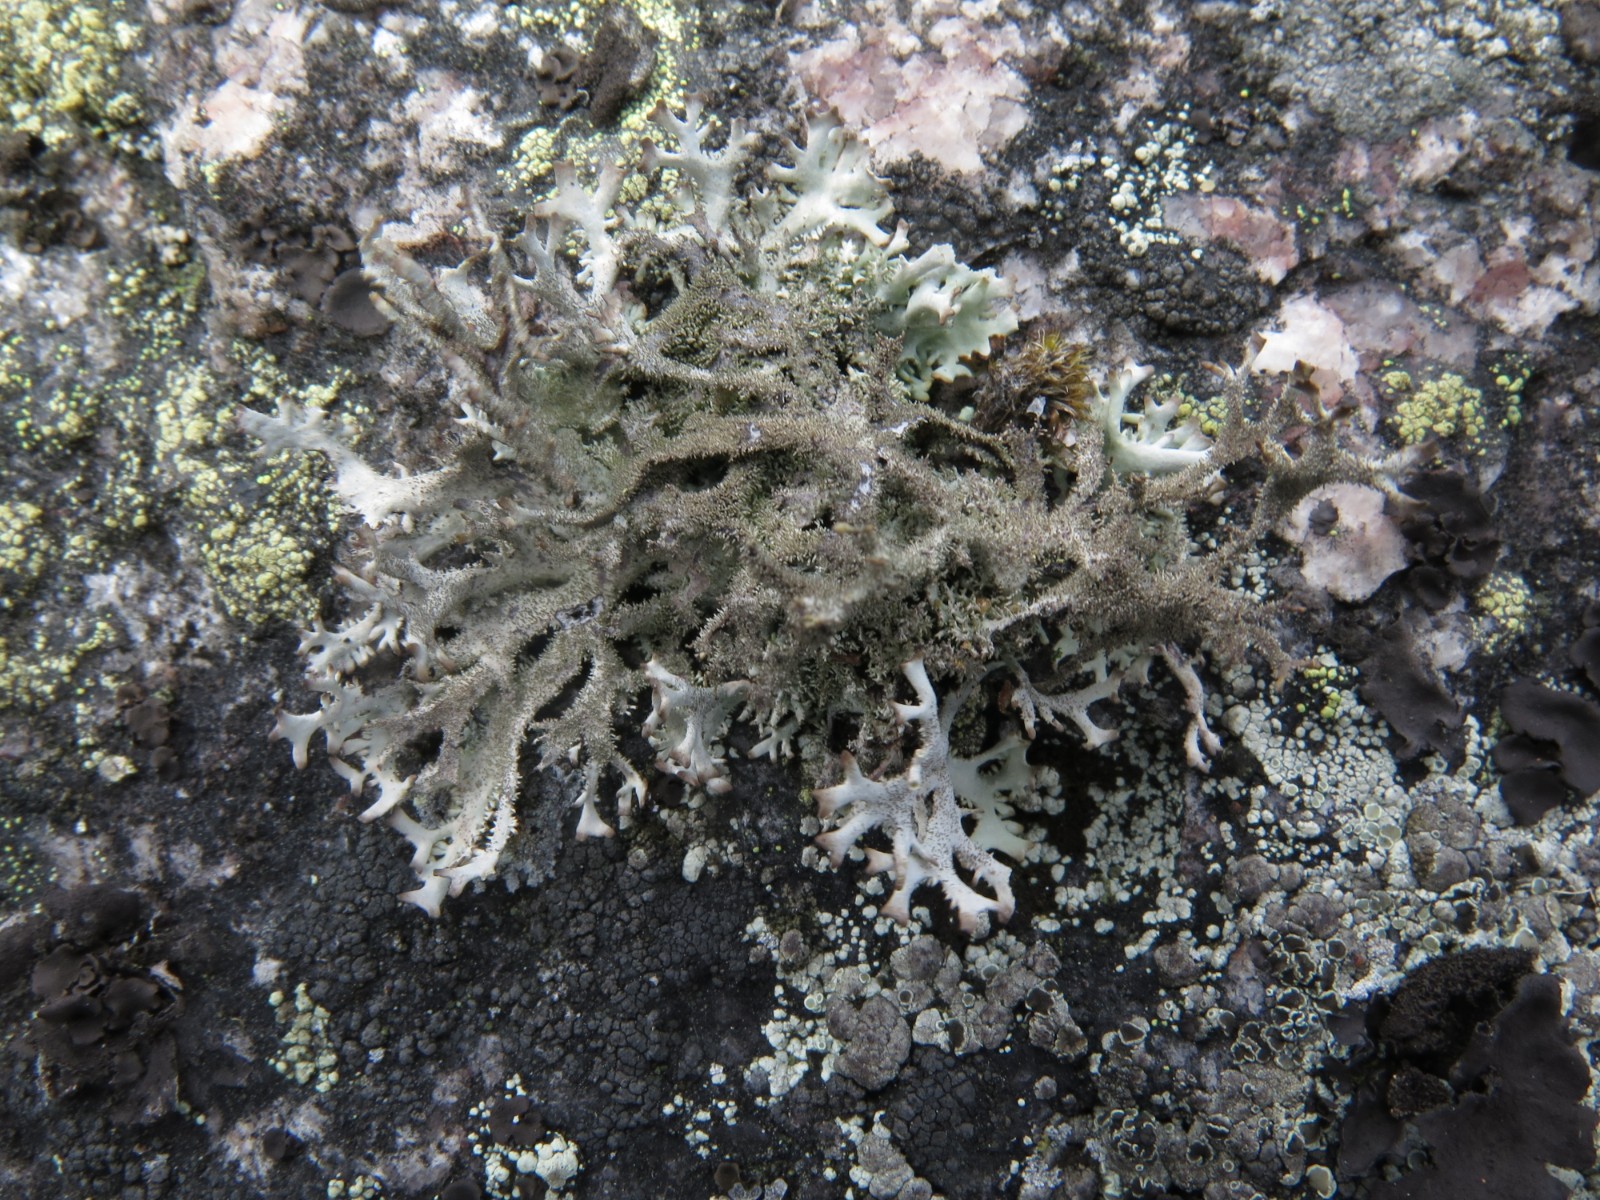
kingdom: Fungi
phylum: Ascomycota
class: Lecanoromycetes
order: Lecanorales
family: Parmeliaceae
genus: Pseudevernia
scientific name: Pseudevernia furfuracea
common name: grå fyrrelav
